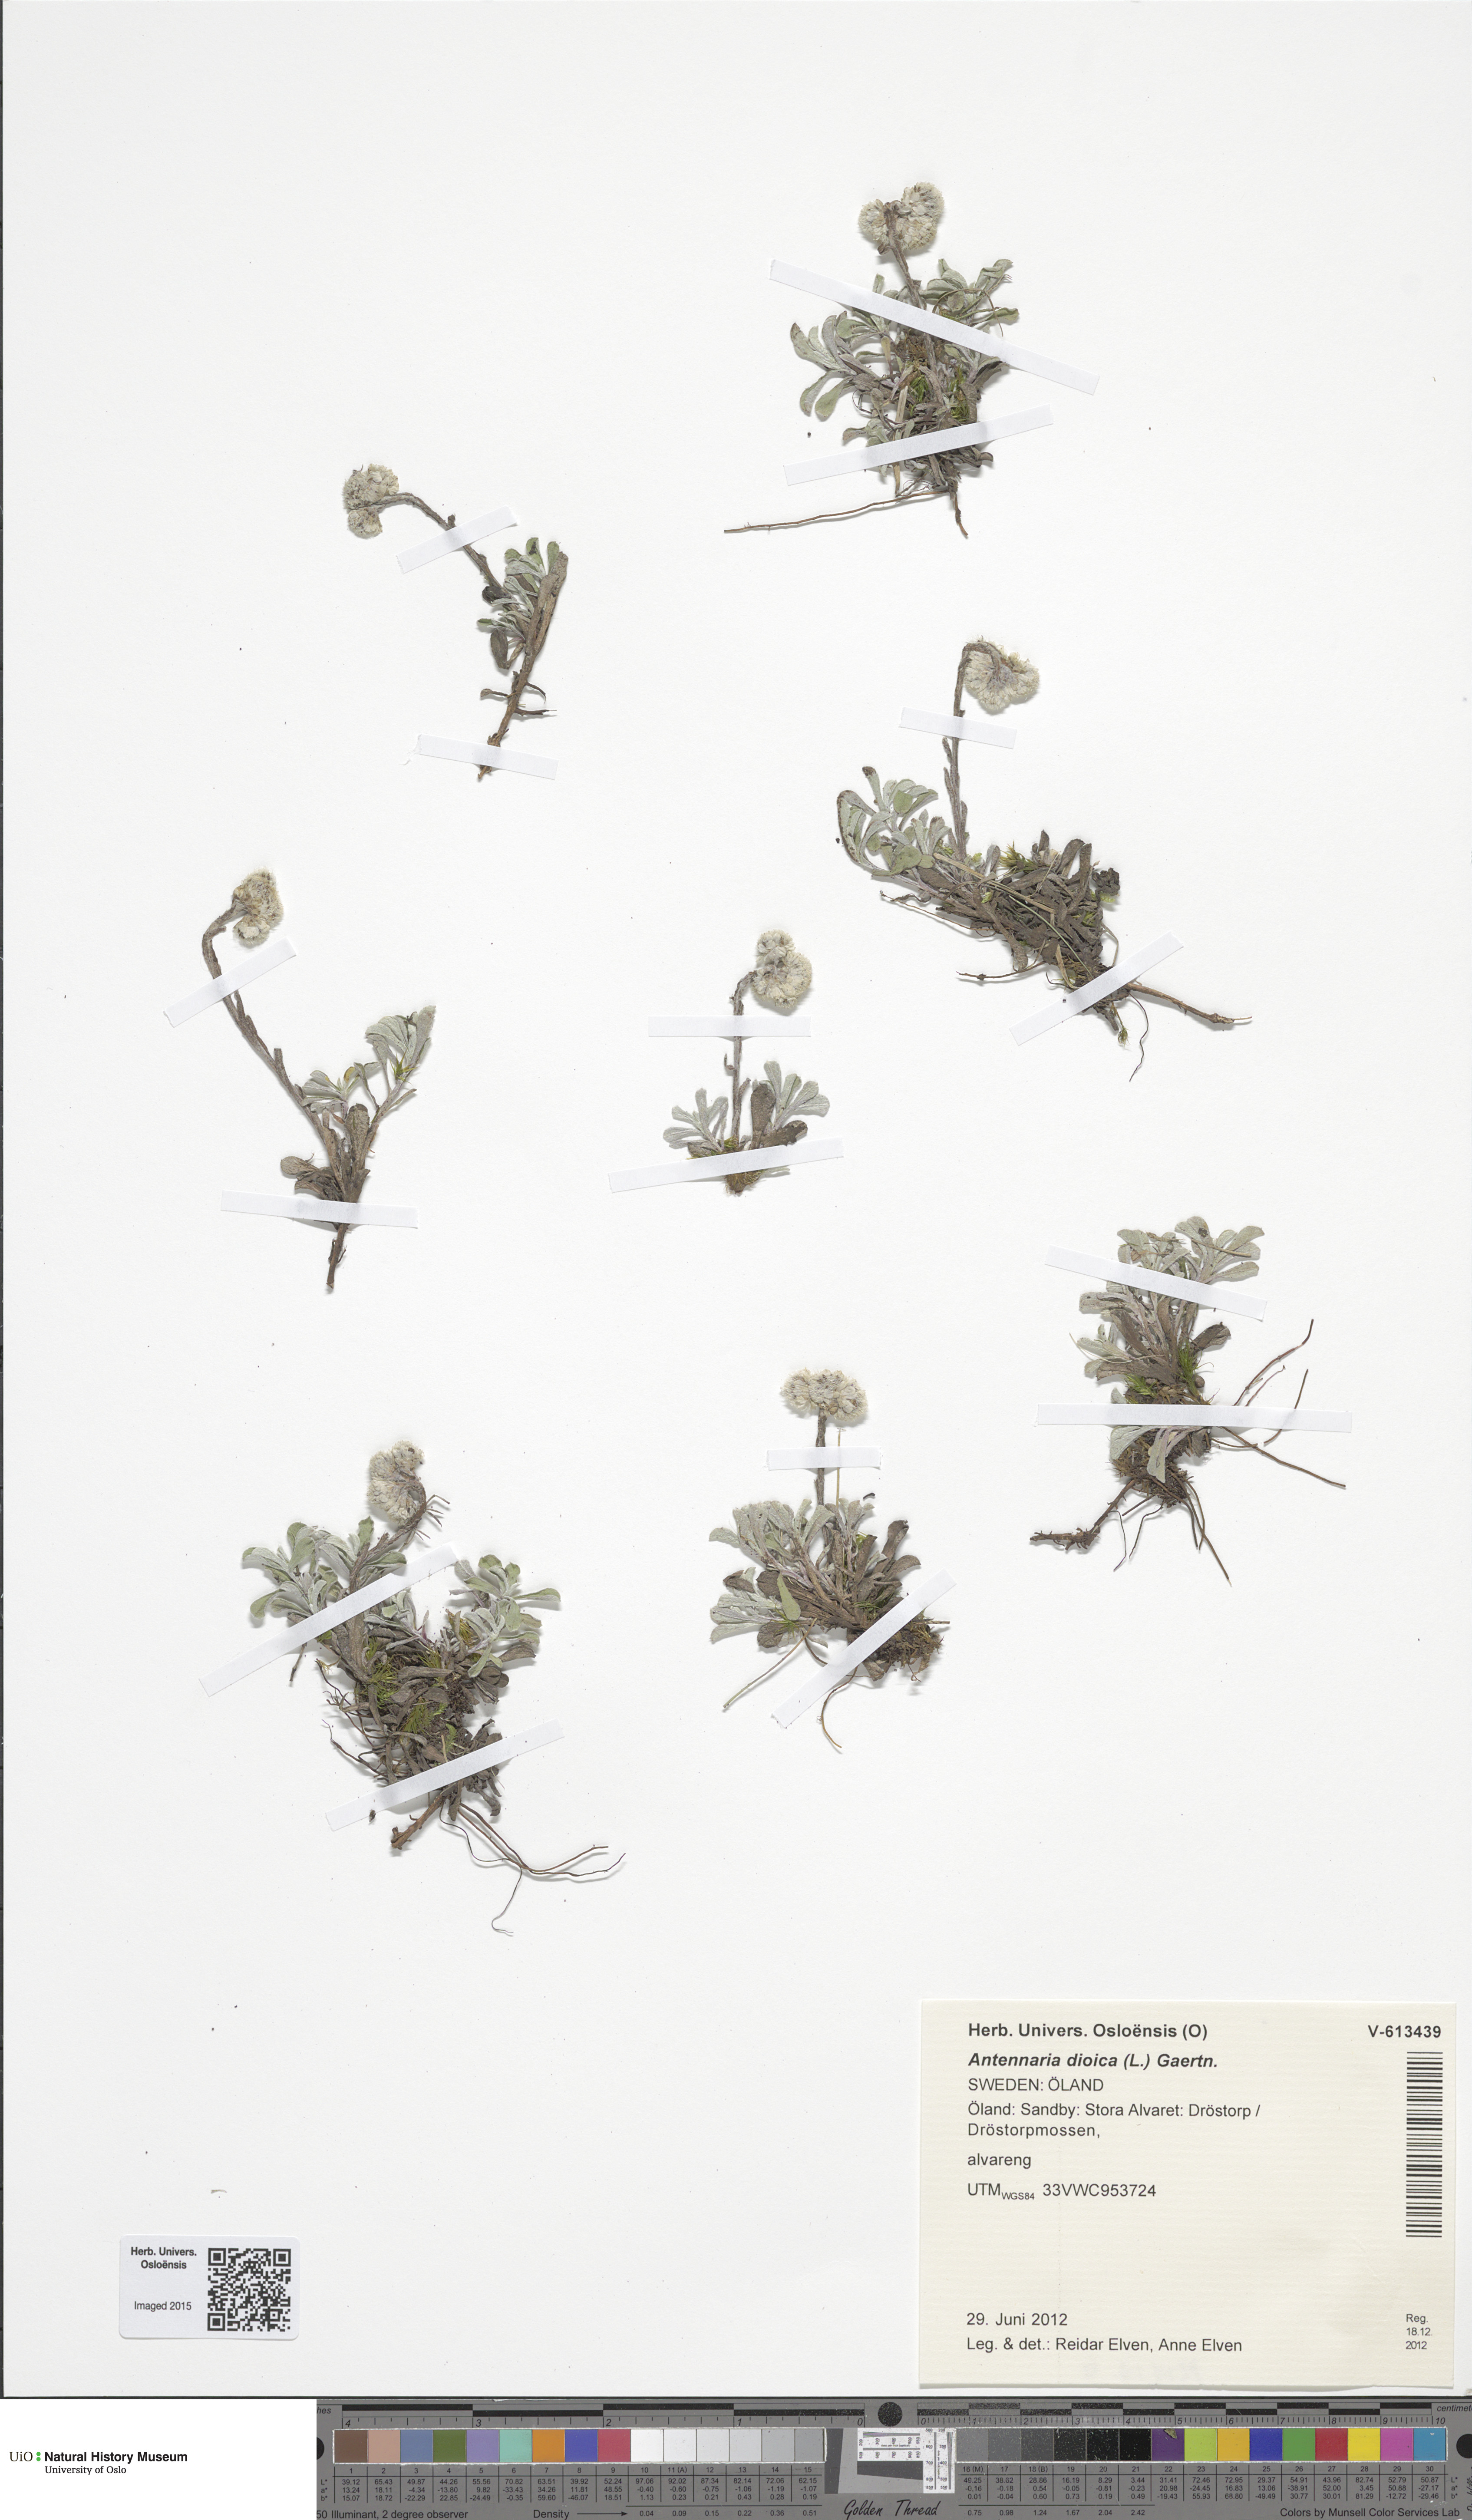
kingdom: Plantae
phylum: Tracheophyta
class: Magnoliopsida
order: Asterales
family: Asteraceae
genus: Antennaria
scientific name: Antennaria dioica
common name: Mountain everlasting
